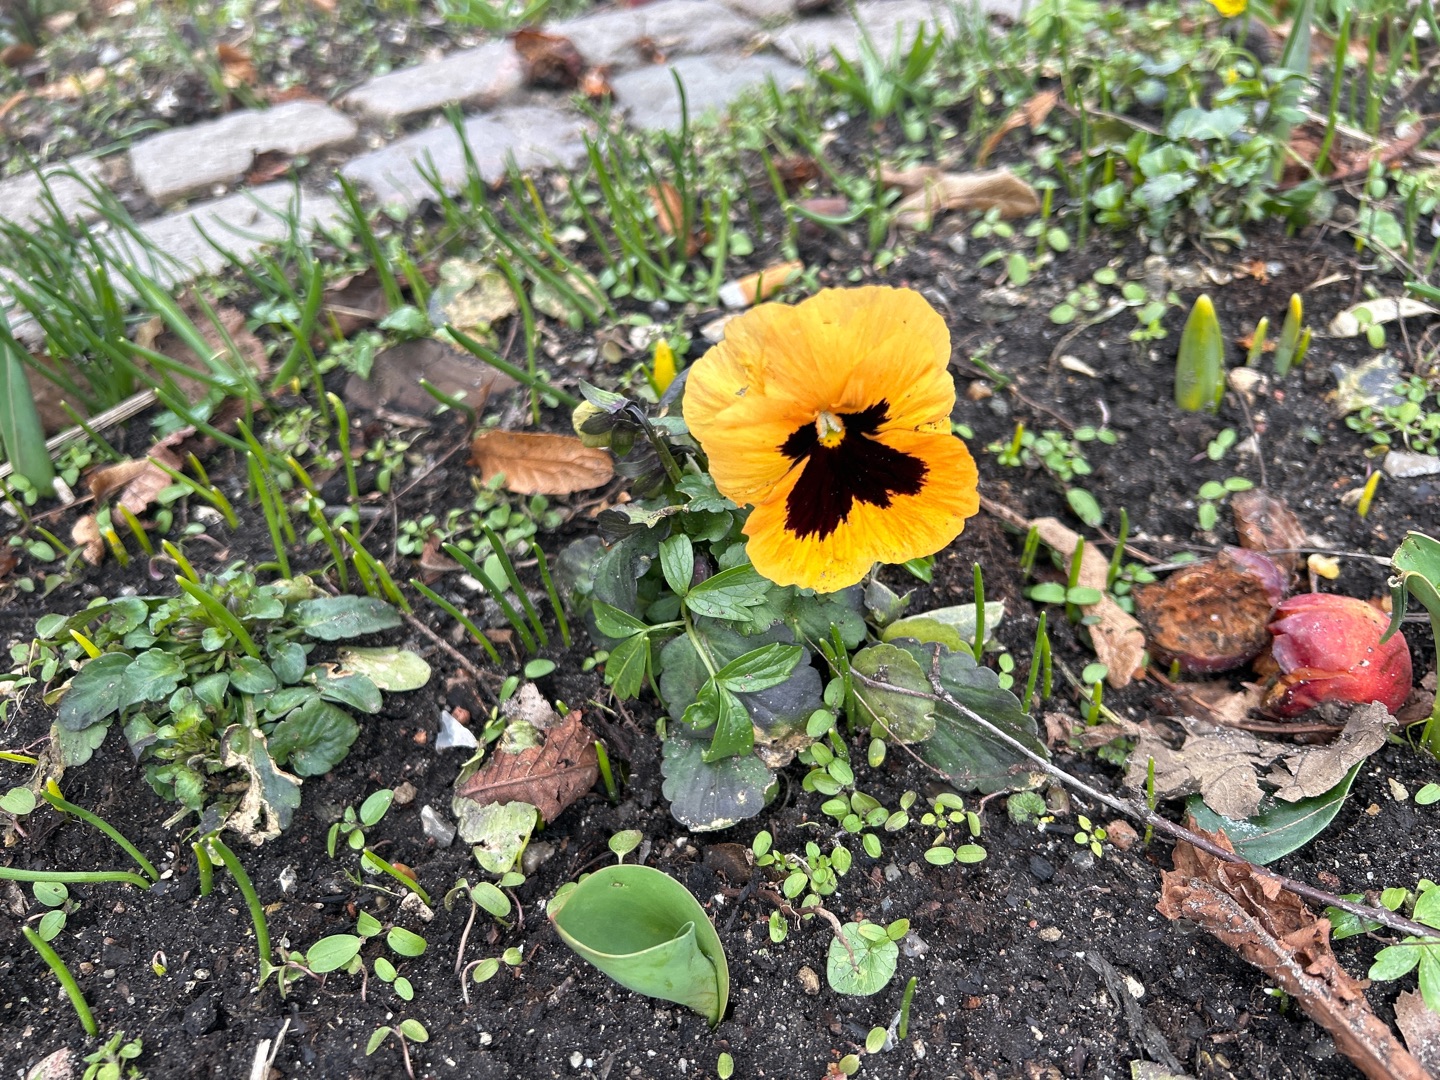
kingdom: Plantae
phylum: Tracheophyta
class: Magnoliopsida
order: Malpighiales
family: Violaceae
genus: Viola
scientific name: Viola wittrockiana
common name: Have-stedmoderblomst
